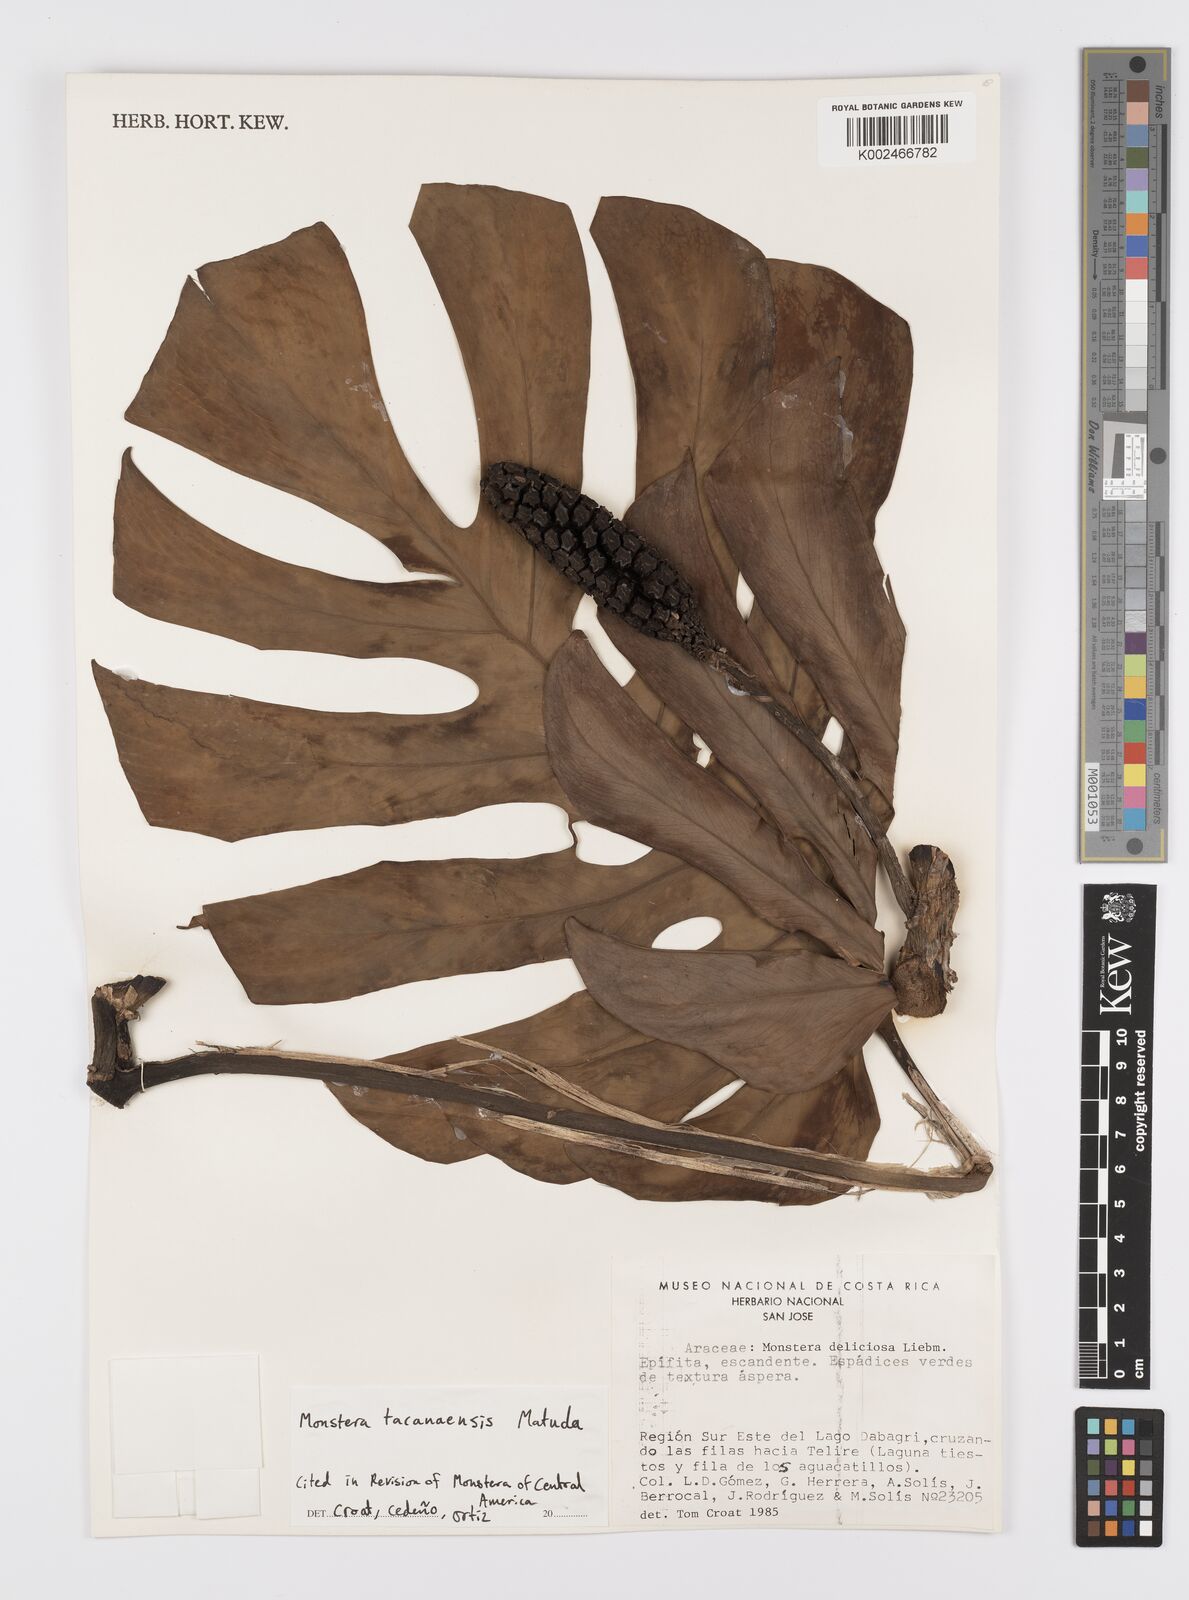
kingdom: Plantae
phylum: Tracheophyta
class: Liliopsida
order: Alismatales
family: Araceae
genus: Monstera
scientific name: Monstera tacanaensis
